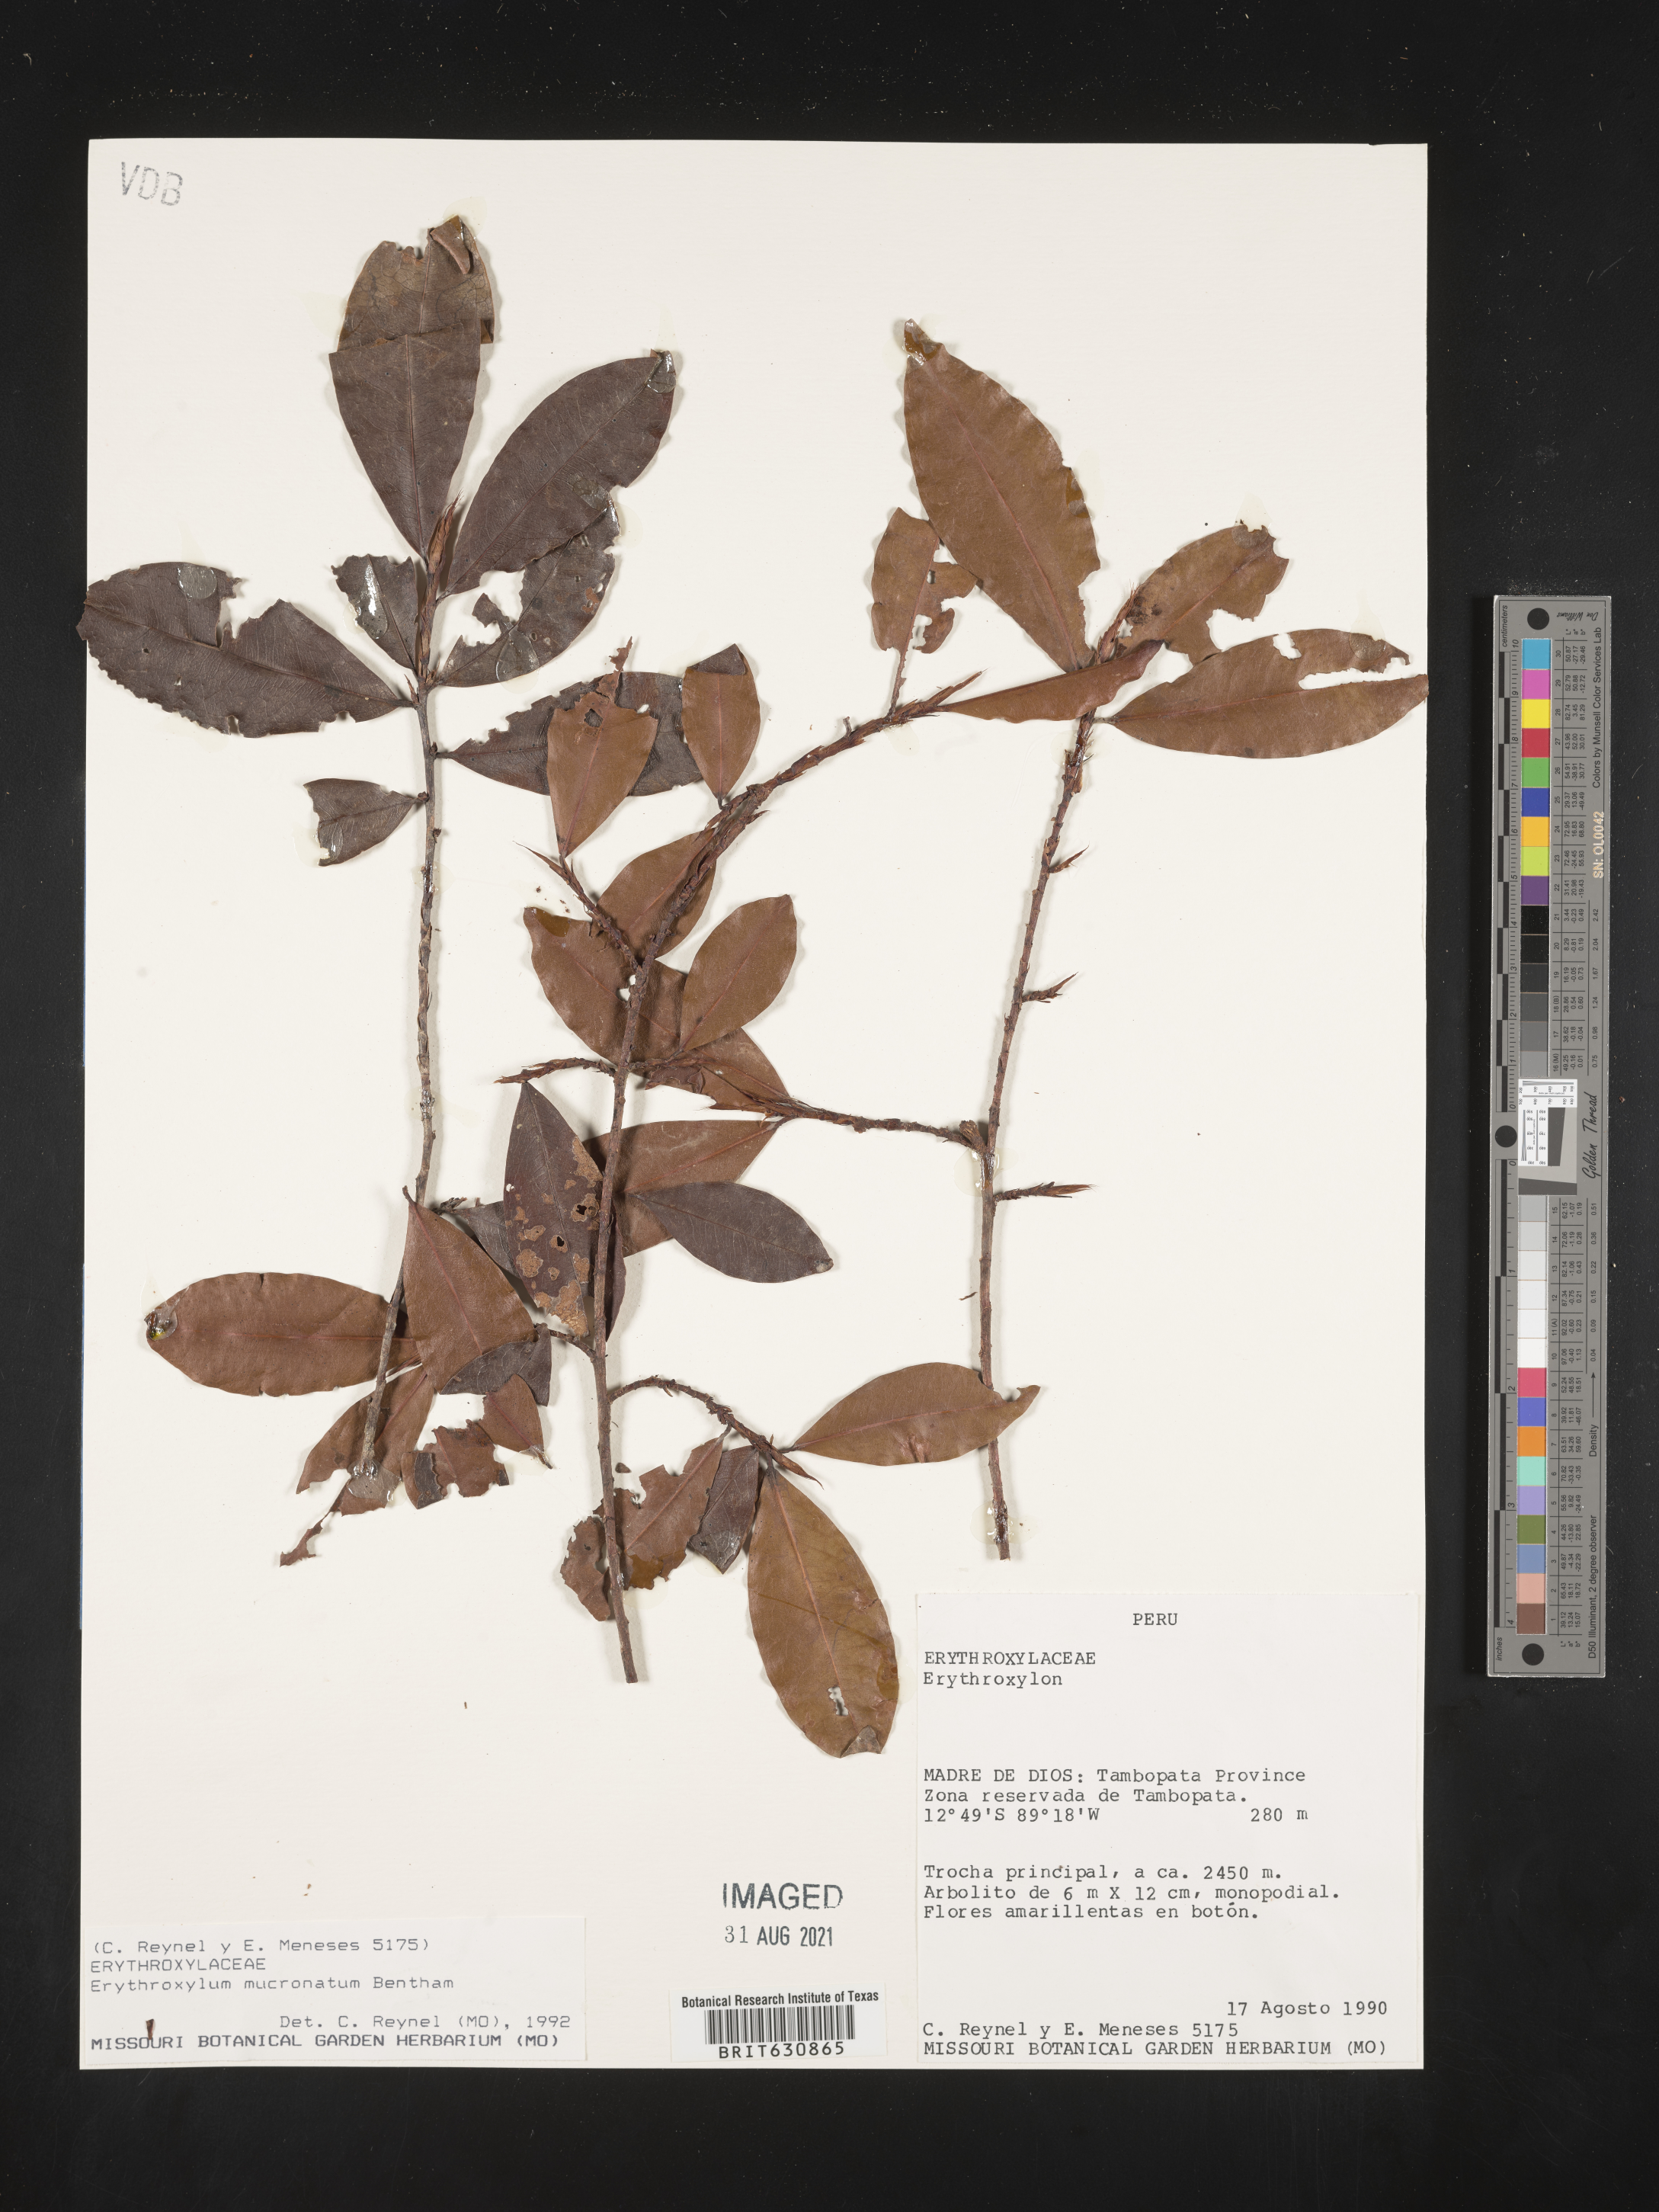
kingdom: Plantae
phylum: Tracheophyta
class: Magnoliopsida
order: Malpighiales
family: Erythroxylaceae
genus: Erythroxylum
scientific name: Erythroxylum
